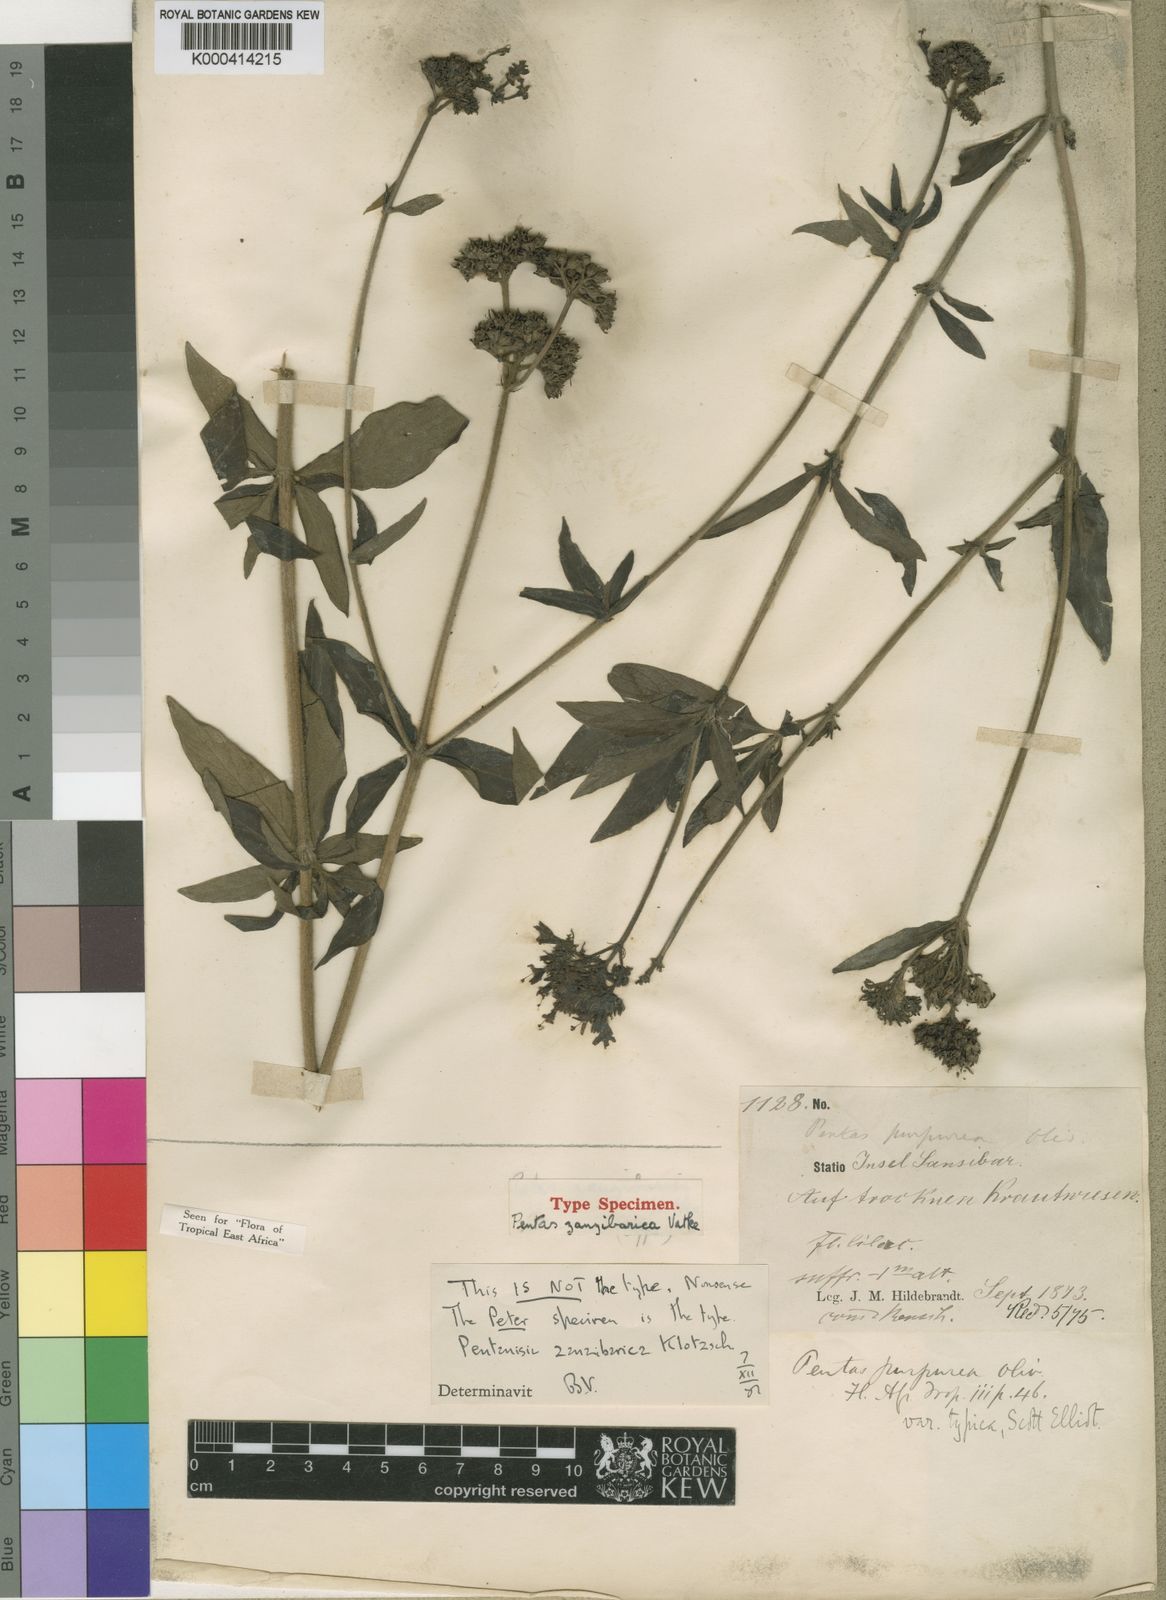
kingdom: Plantae
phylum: Tracheophyta
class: Magnoliopsida
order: Gentianales
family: Rubiaceae
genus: Pentas
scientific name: Pentas zanzibarica
